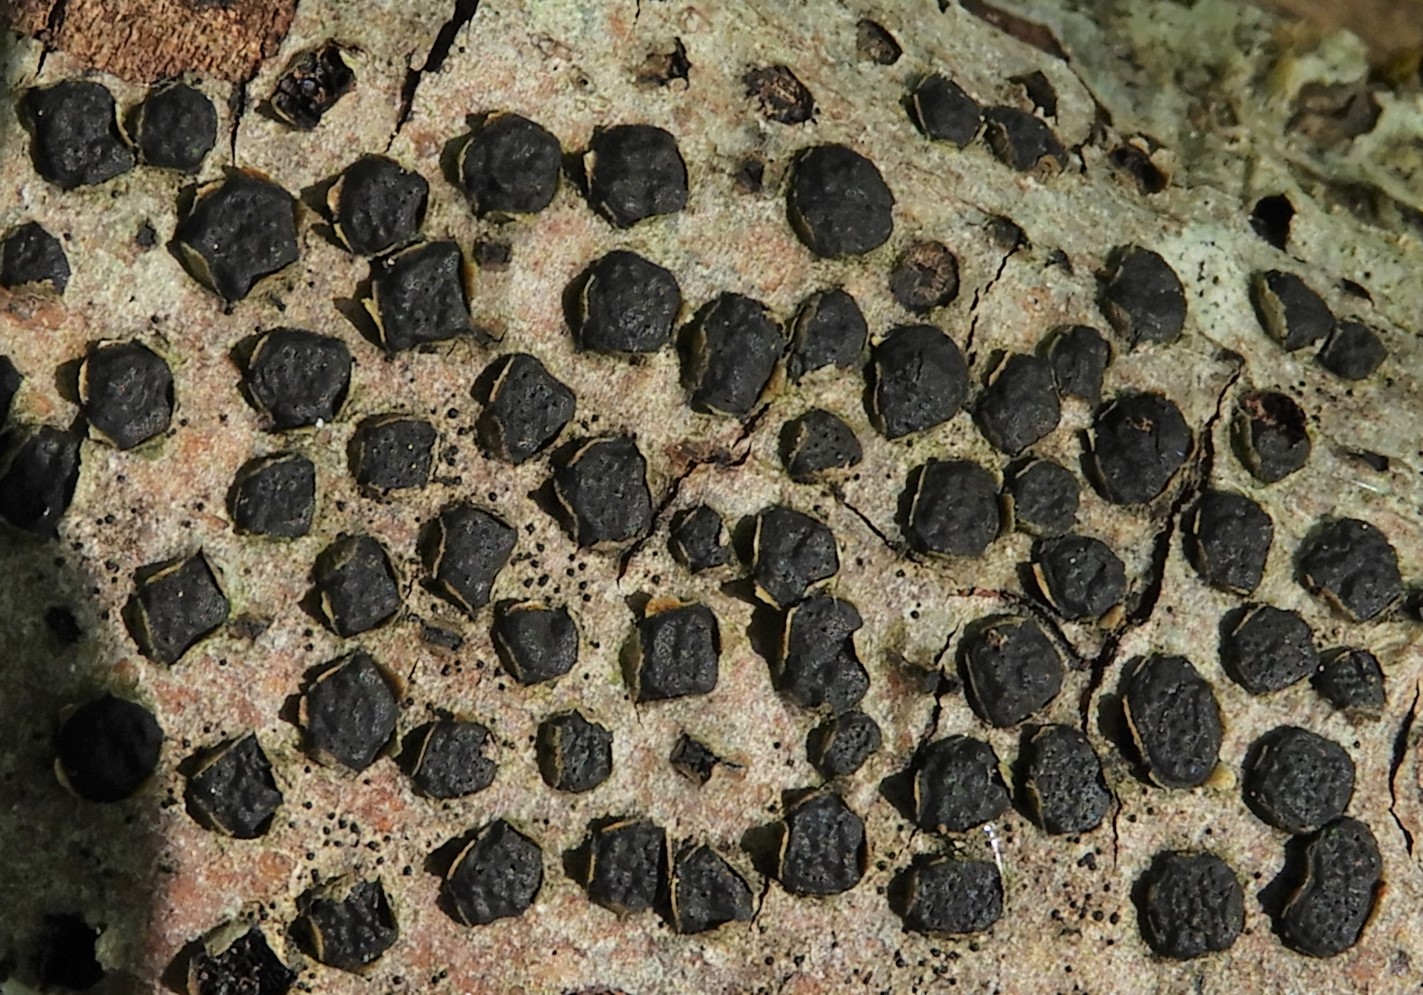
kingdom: Fungi
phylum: Ascomycota
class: Sordariomycetes
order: Xylariales
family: Diatrypaceae
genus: Diatrype
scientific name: Diatrype disciformis
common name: kant-kulskorpe
